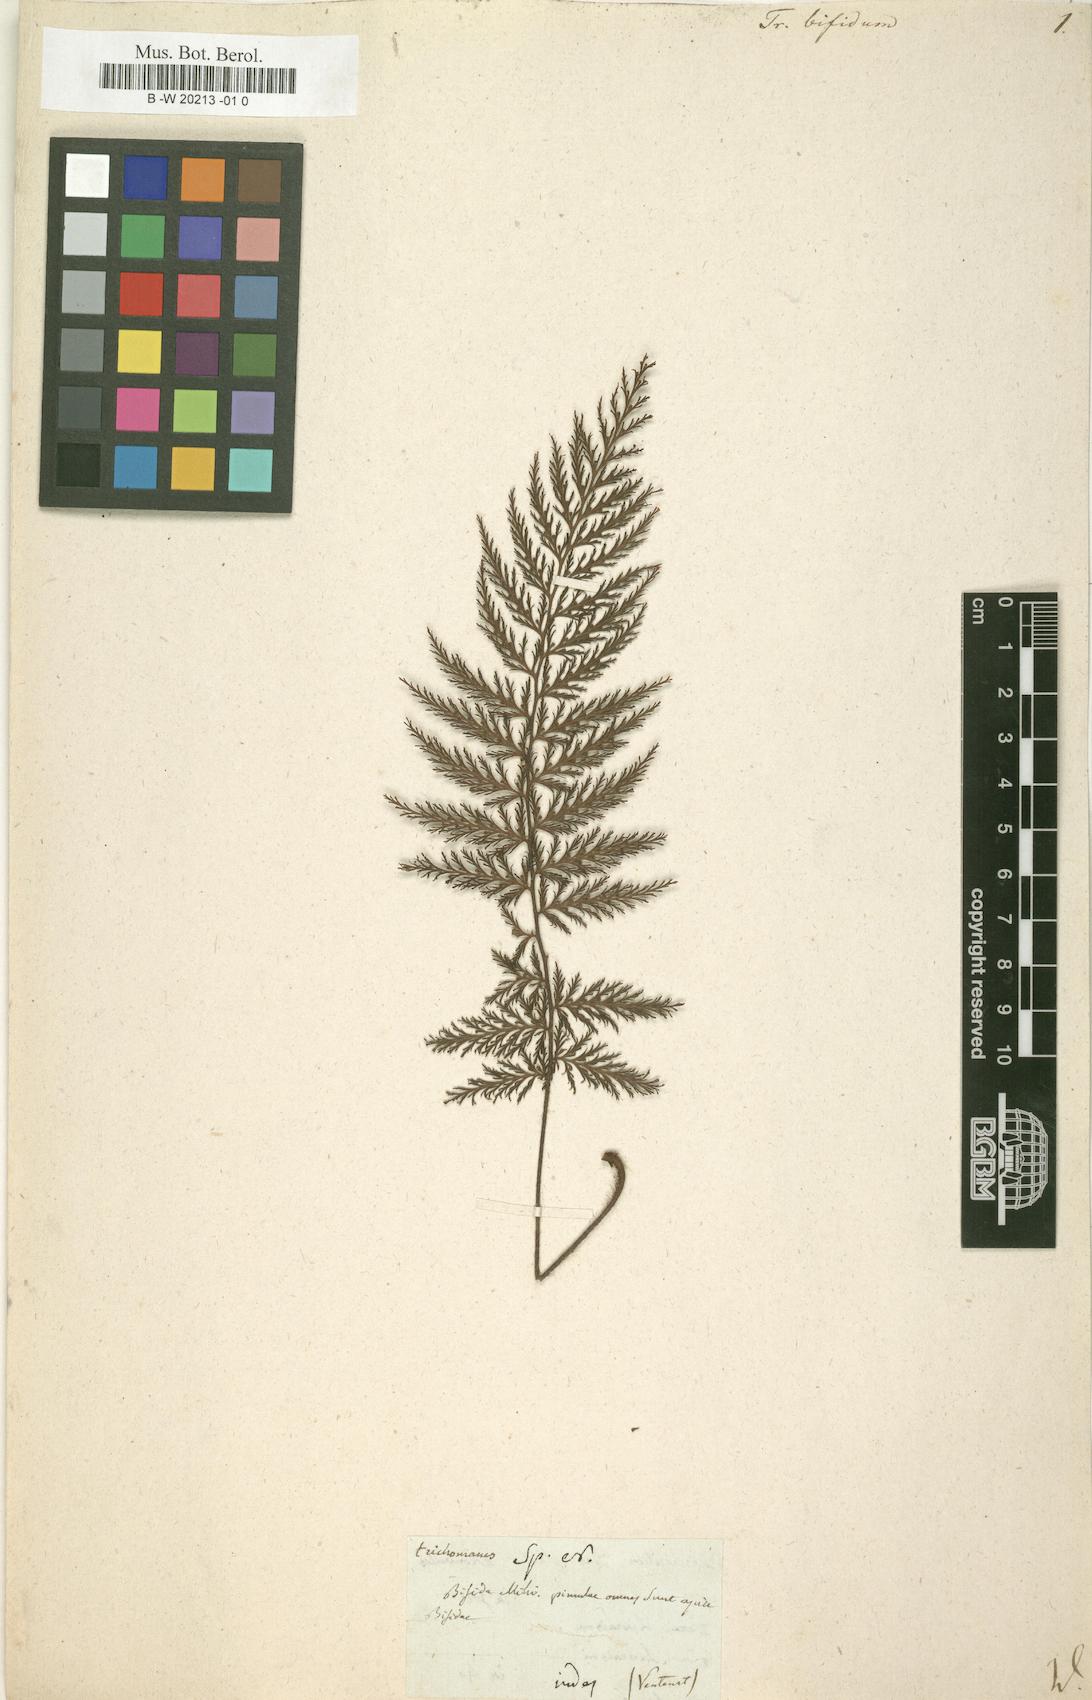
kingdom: Plantae
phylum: Tracheophyta
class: Polypodiopsida
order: Hymenophyllales
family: Hymenophyllaceae
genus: Abrodictyum
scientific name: Abrodictyum
